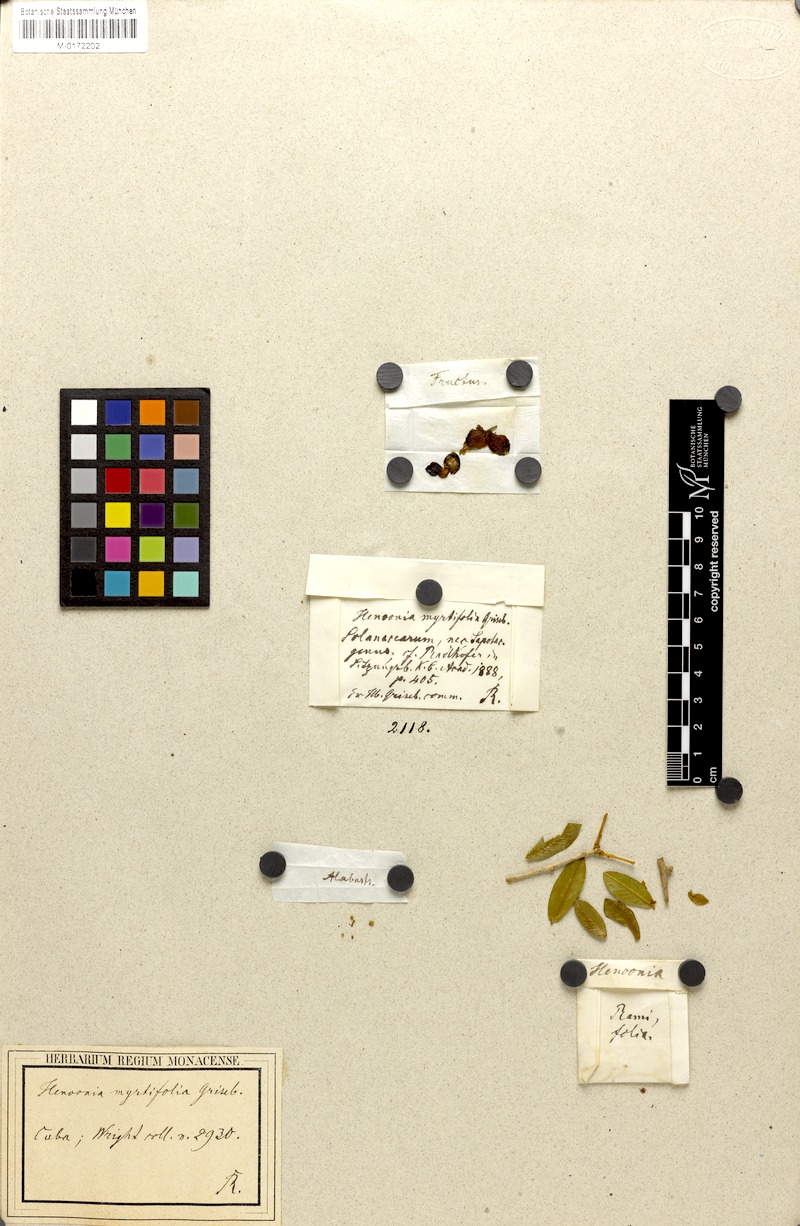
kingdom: Plantae
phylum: Tracheophyta
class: Magnoliopsida
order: Solanales
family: Solanaceae
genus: Henoonia
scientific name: Henoonia myrtifolia
